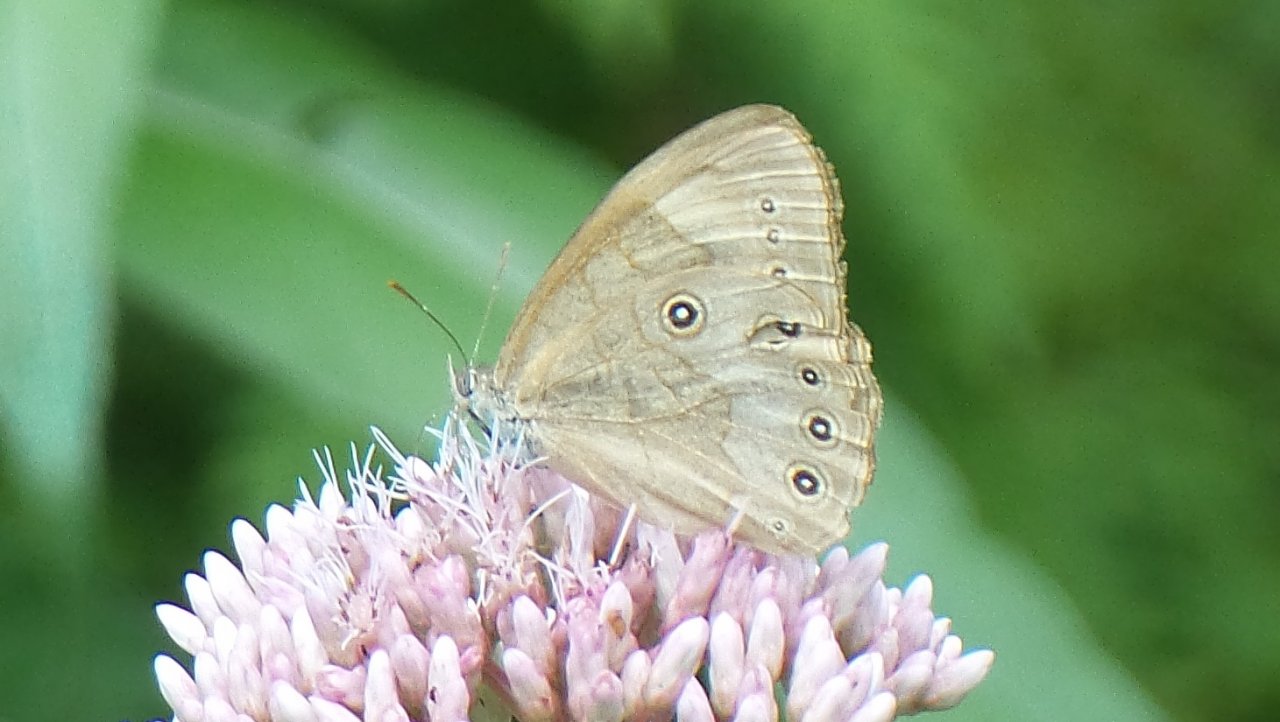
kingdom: Animalia
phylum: Arthropoda
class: Insecta
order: Lepidoptera
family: Nymphalidae
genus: Lethe
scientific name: Lethe eurydice
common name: Appalachian Eyed Brown
